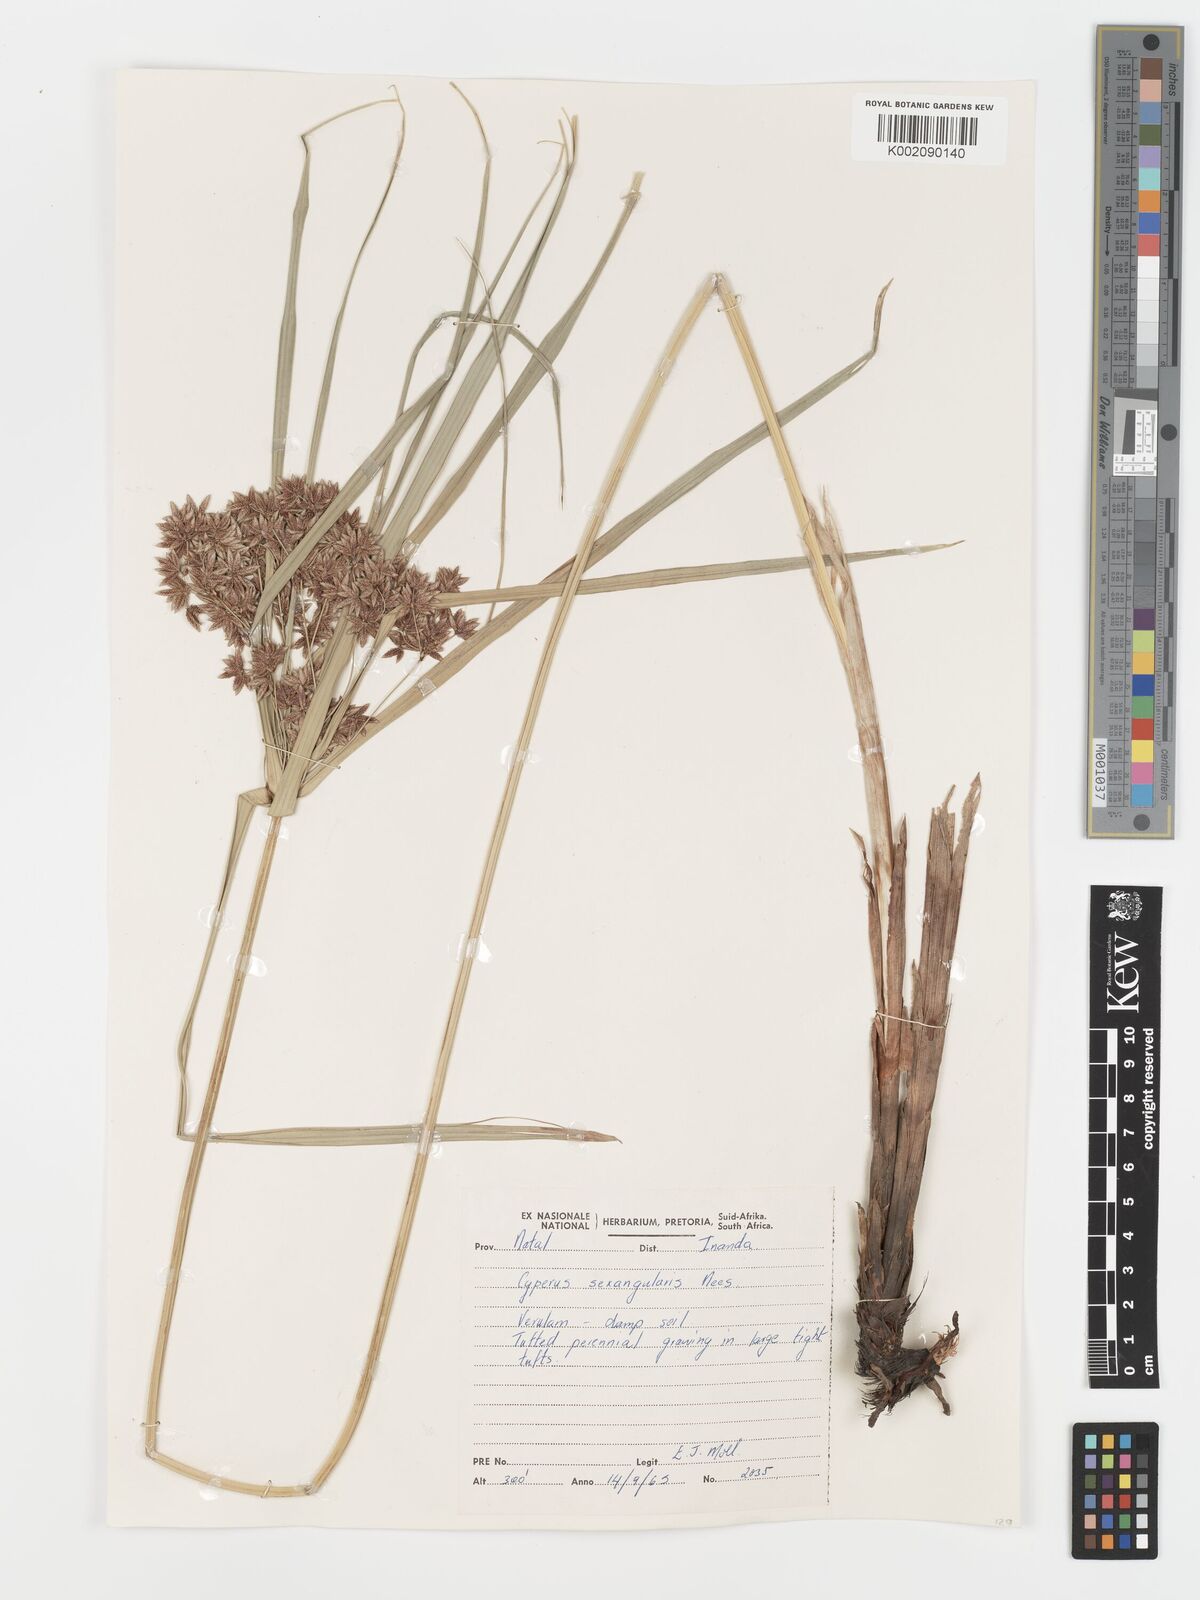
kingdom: Plantae
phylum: Tracheophyta
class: Liliopsida
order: Poales
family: Cyperaceae
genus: Cyperus
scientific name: Cyperus sexangularis
